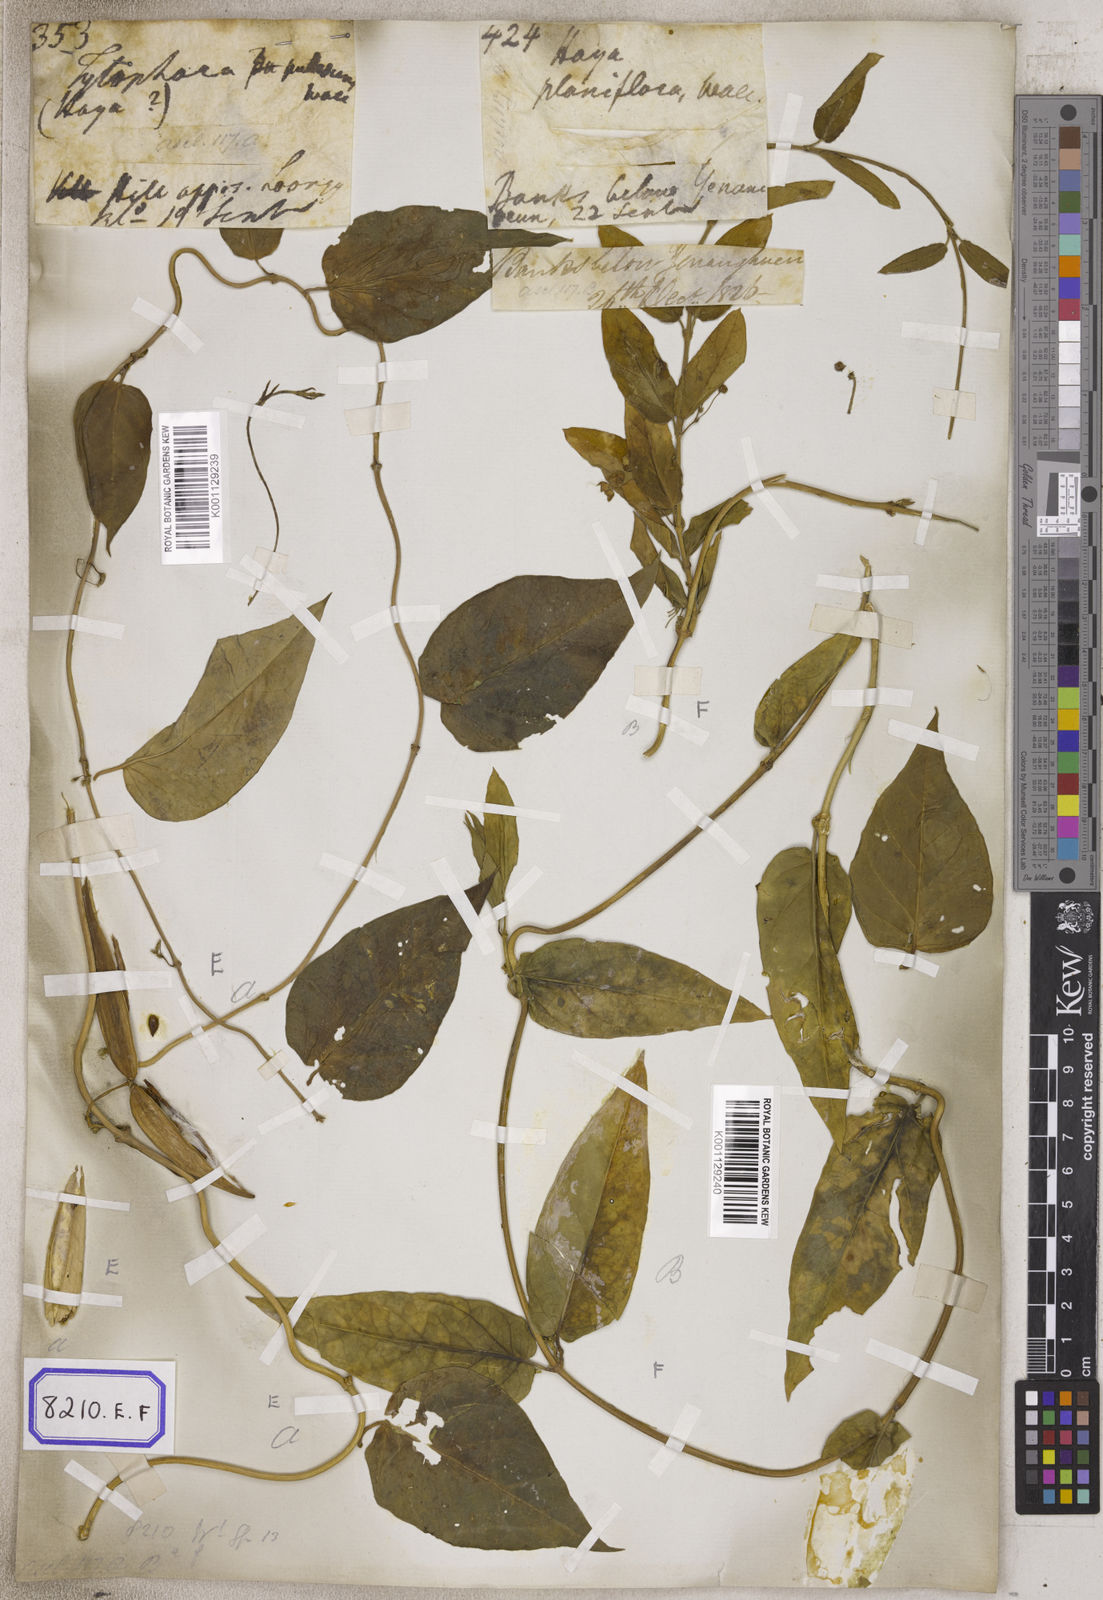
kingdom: Plantae
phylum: Tracheophyta
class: Magnoliopsida
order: Gentianales
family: Apocynaceae
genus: Vincetoxicum
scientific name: Vincetoxicum indicum
